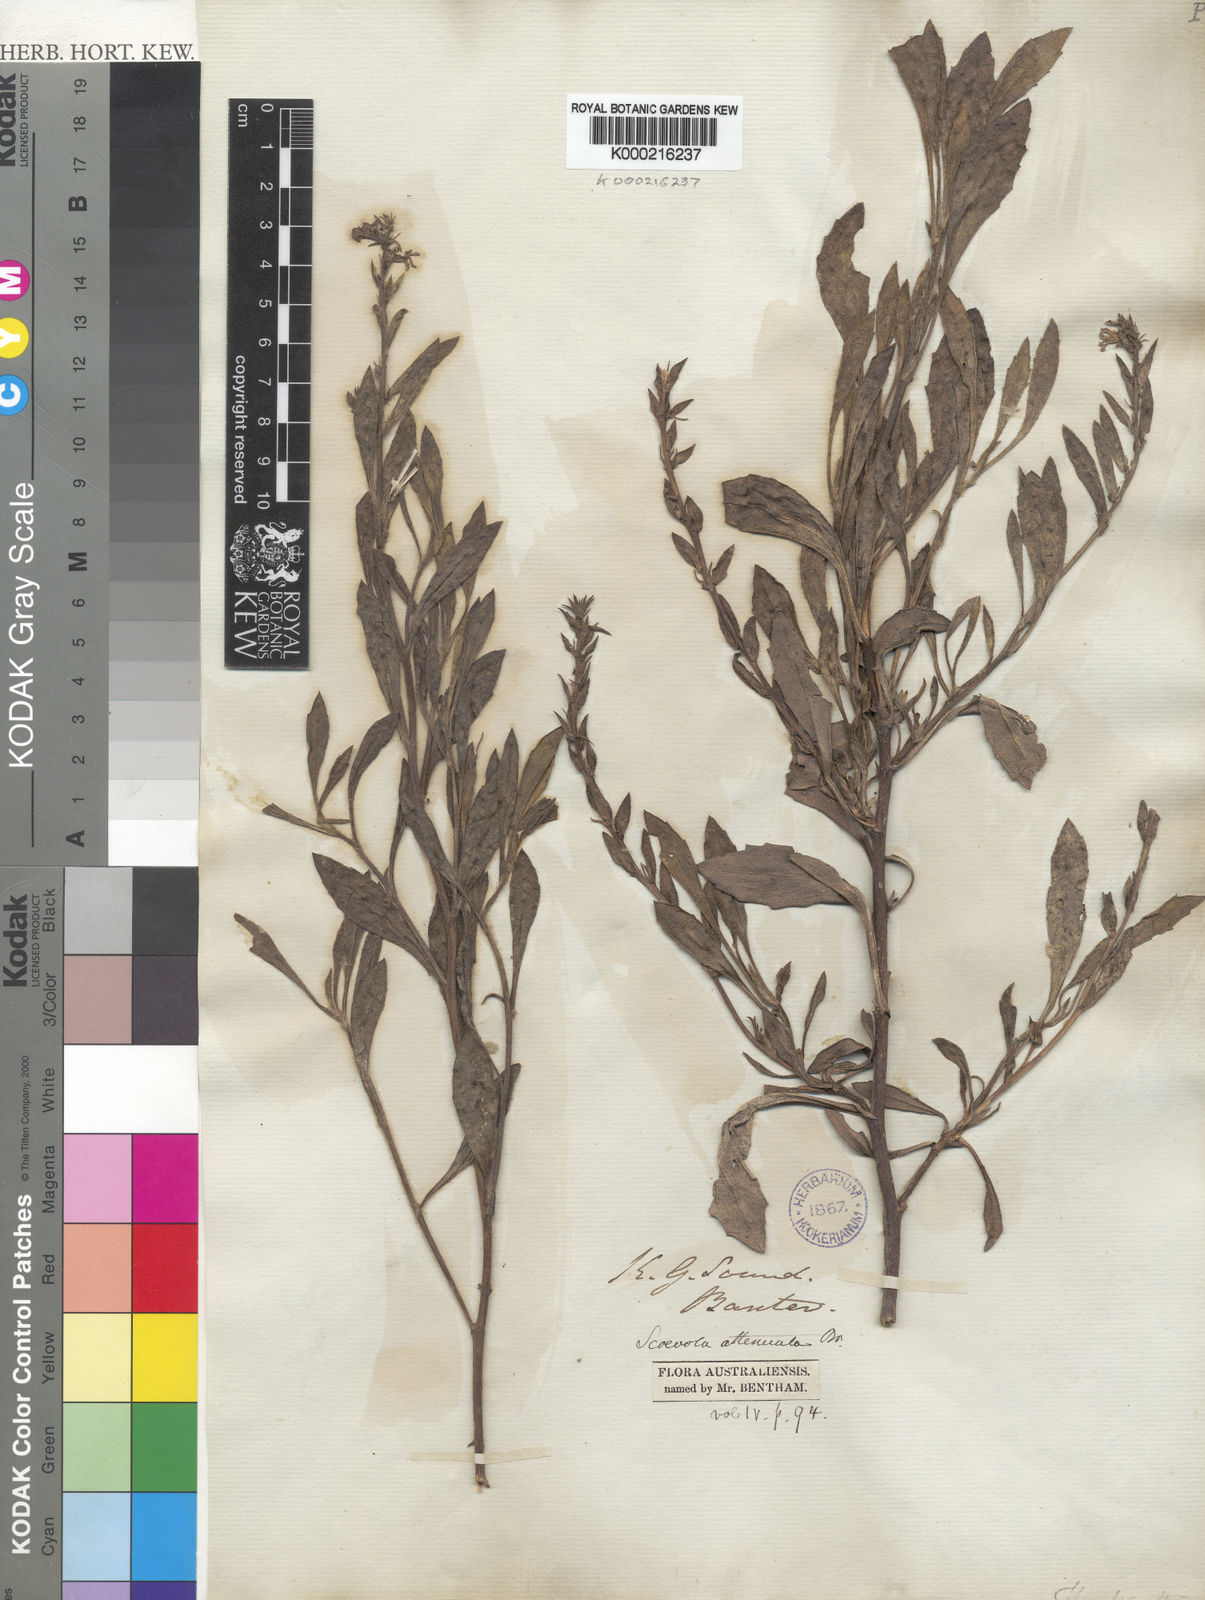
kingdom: Plantae
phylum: Tracheophyta
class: Magnoliopsida
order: Asterales
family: Goodeniaceae
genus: Scaevola
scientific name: Scaevola nitida
